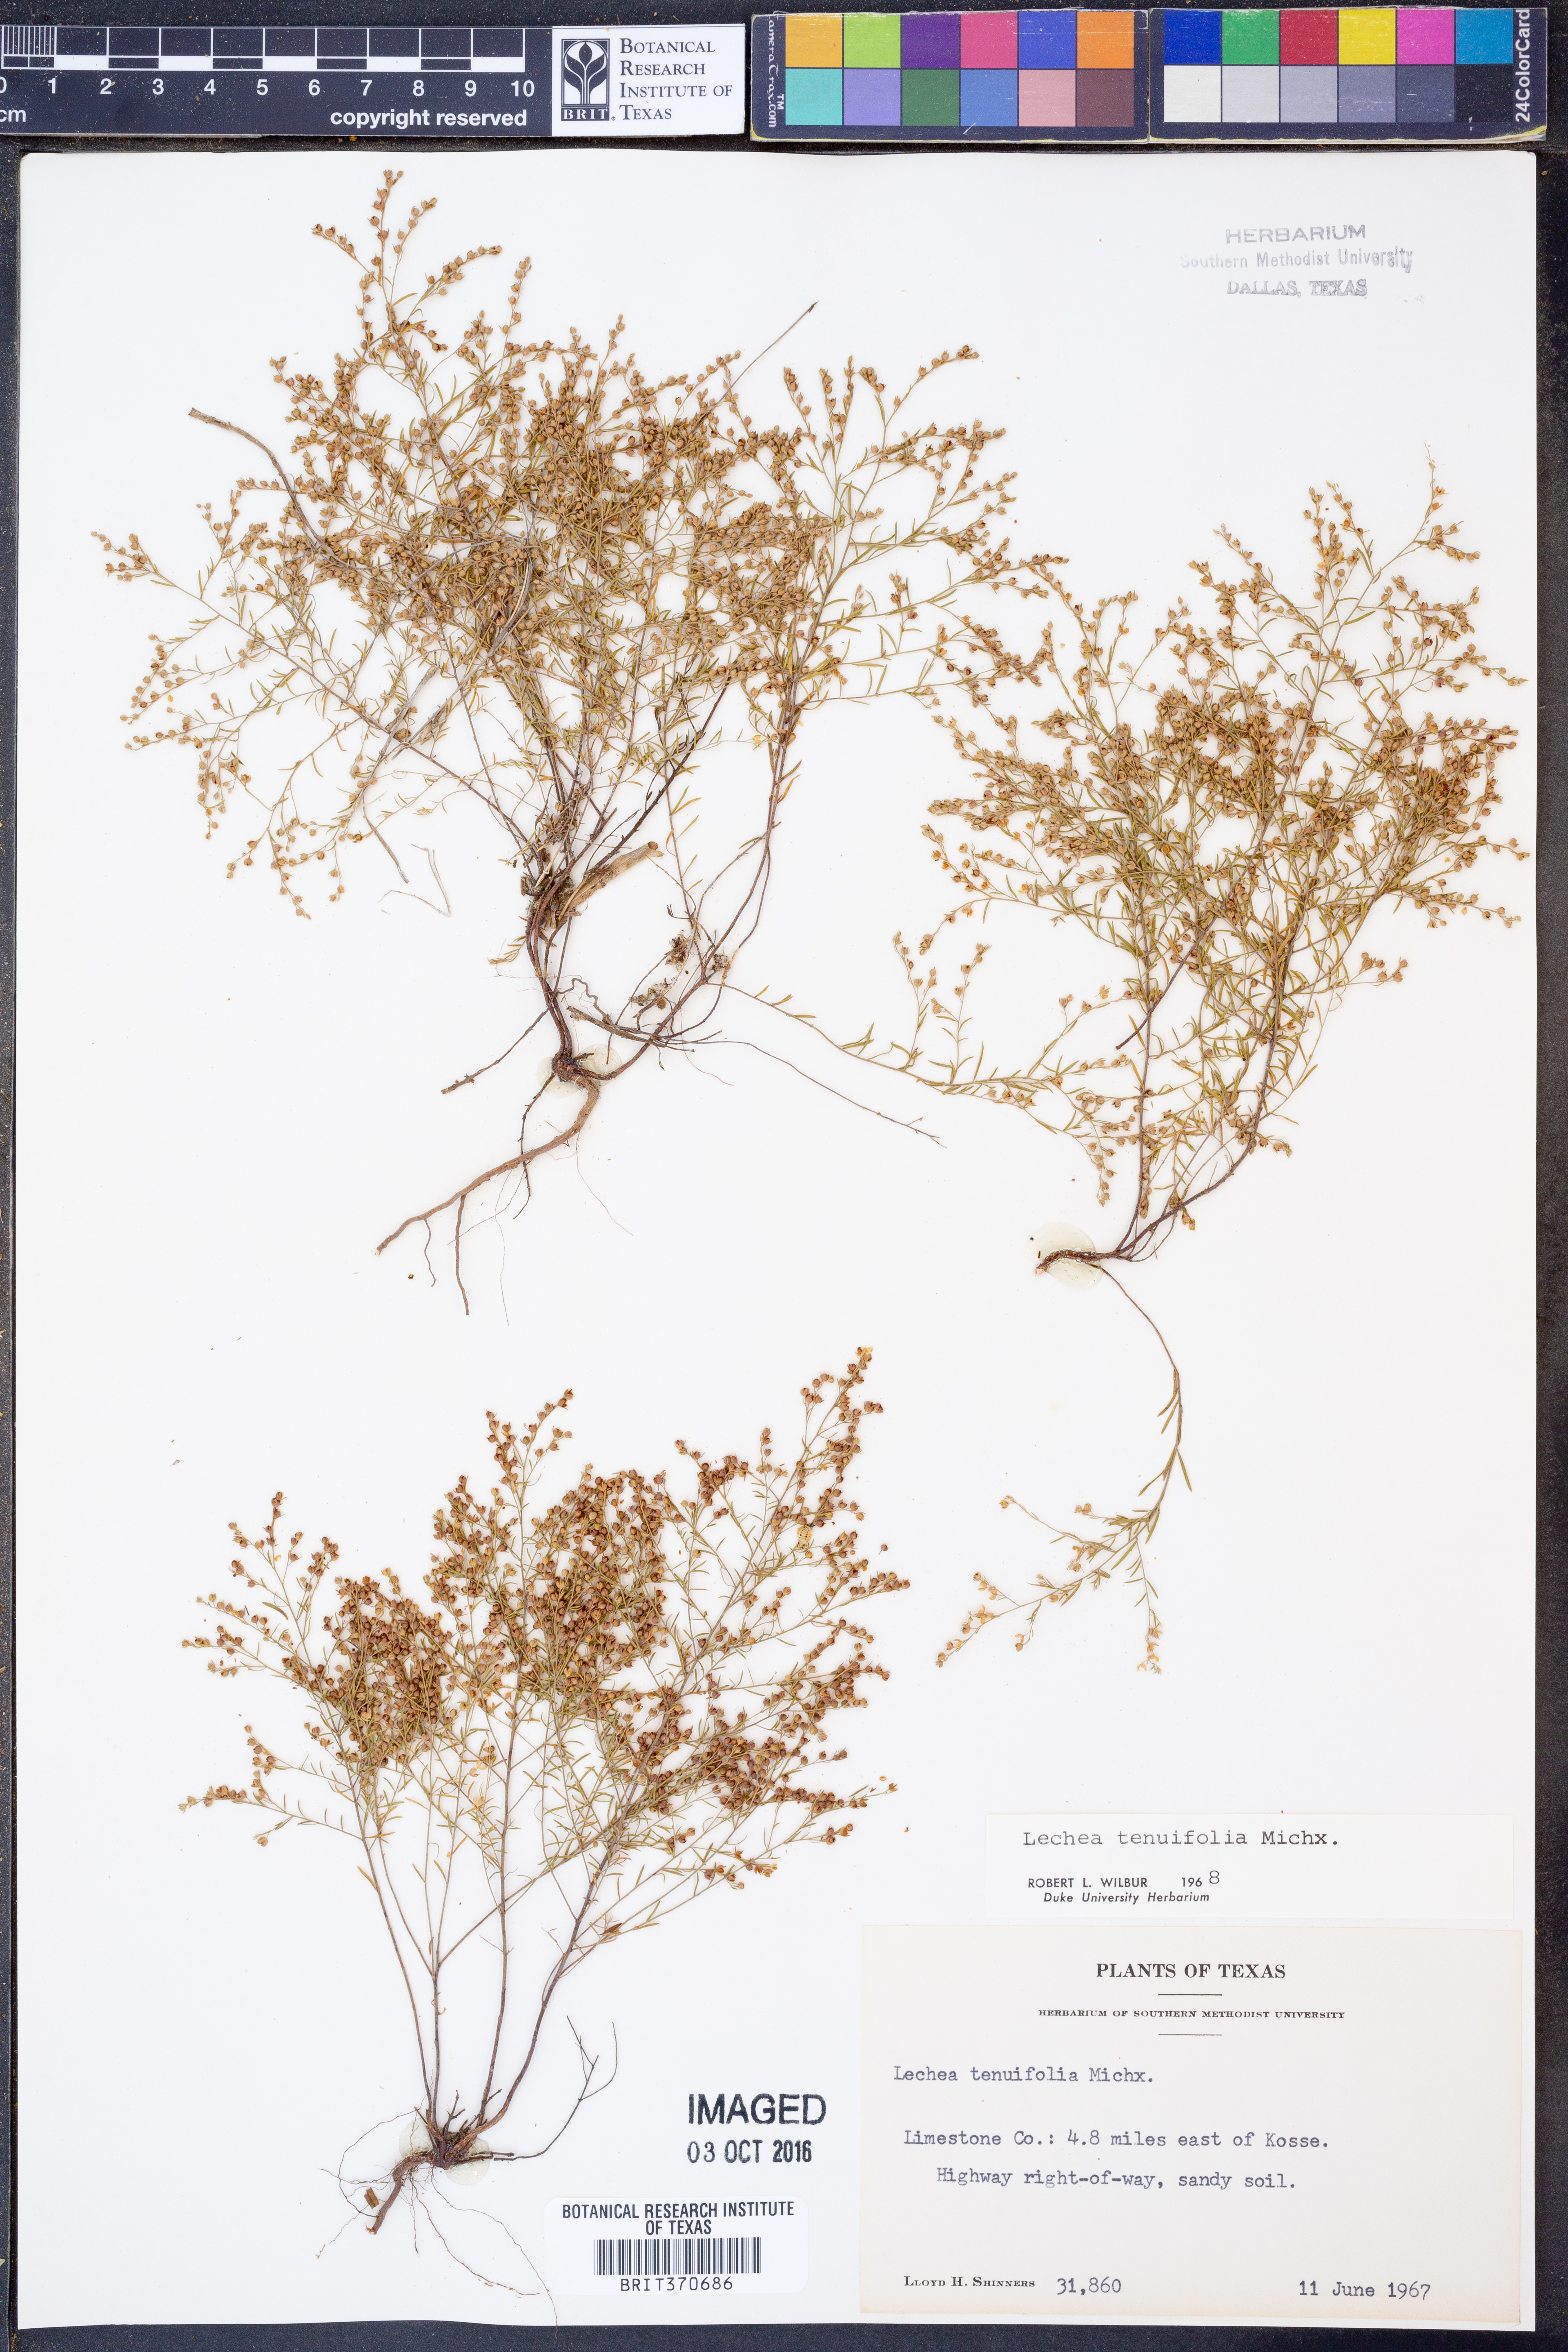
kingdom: Plantae
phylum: Tracheophyta
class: Magnoliopsida
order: Malvales
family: Cistaceae
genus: Lechea
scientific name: Lechea tenuifolia
